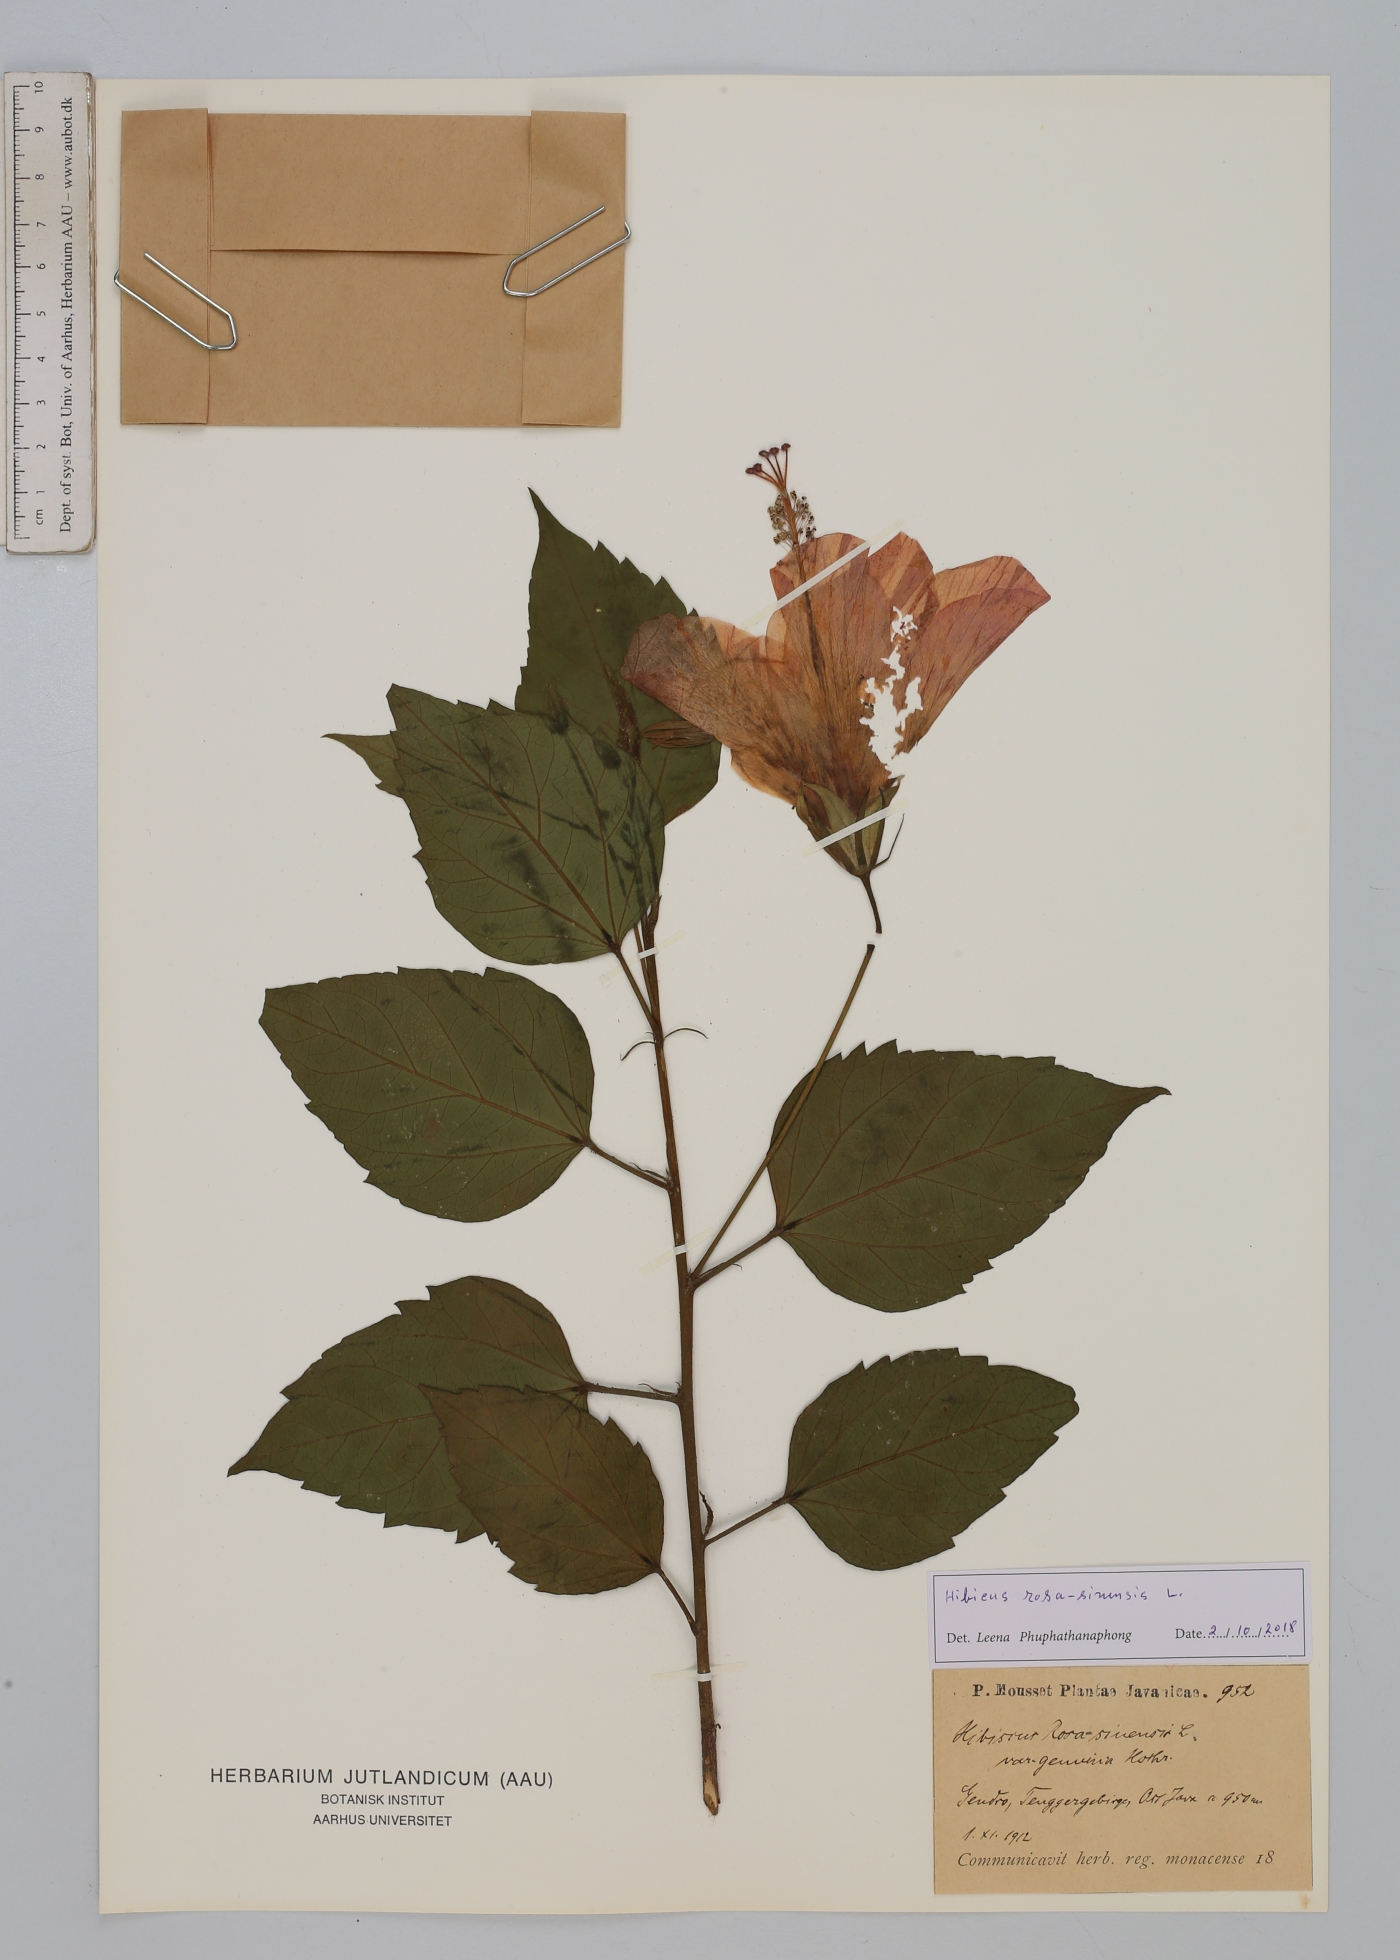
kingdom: Plantae
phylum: Tracheophyta
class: Magnoliopsida
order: Malvales
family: Malvaceae
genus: Hibiscus
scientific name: Hibiscus rosa-sinensis
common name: Hibiscus
